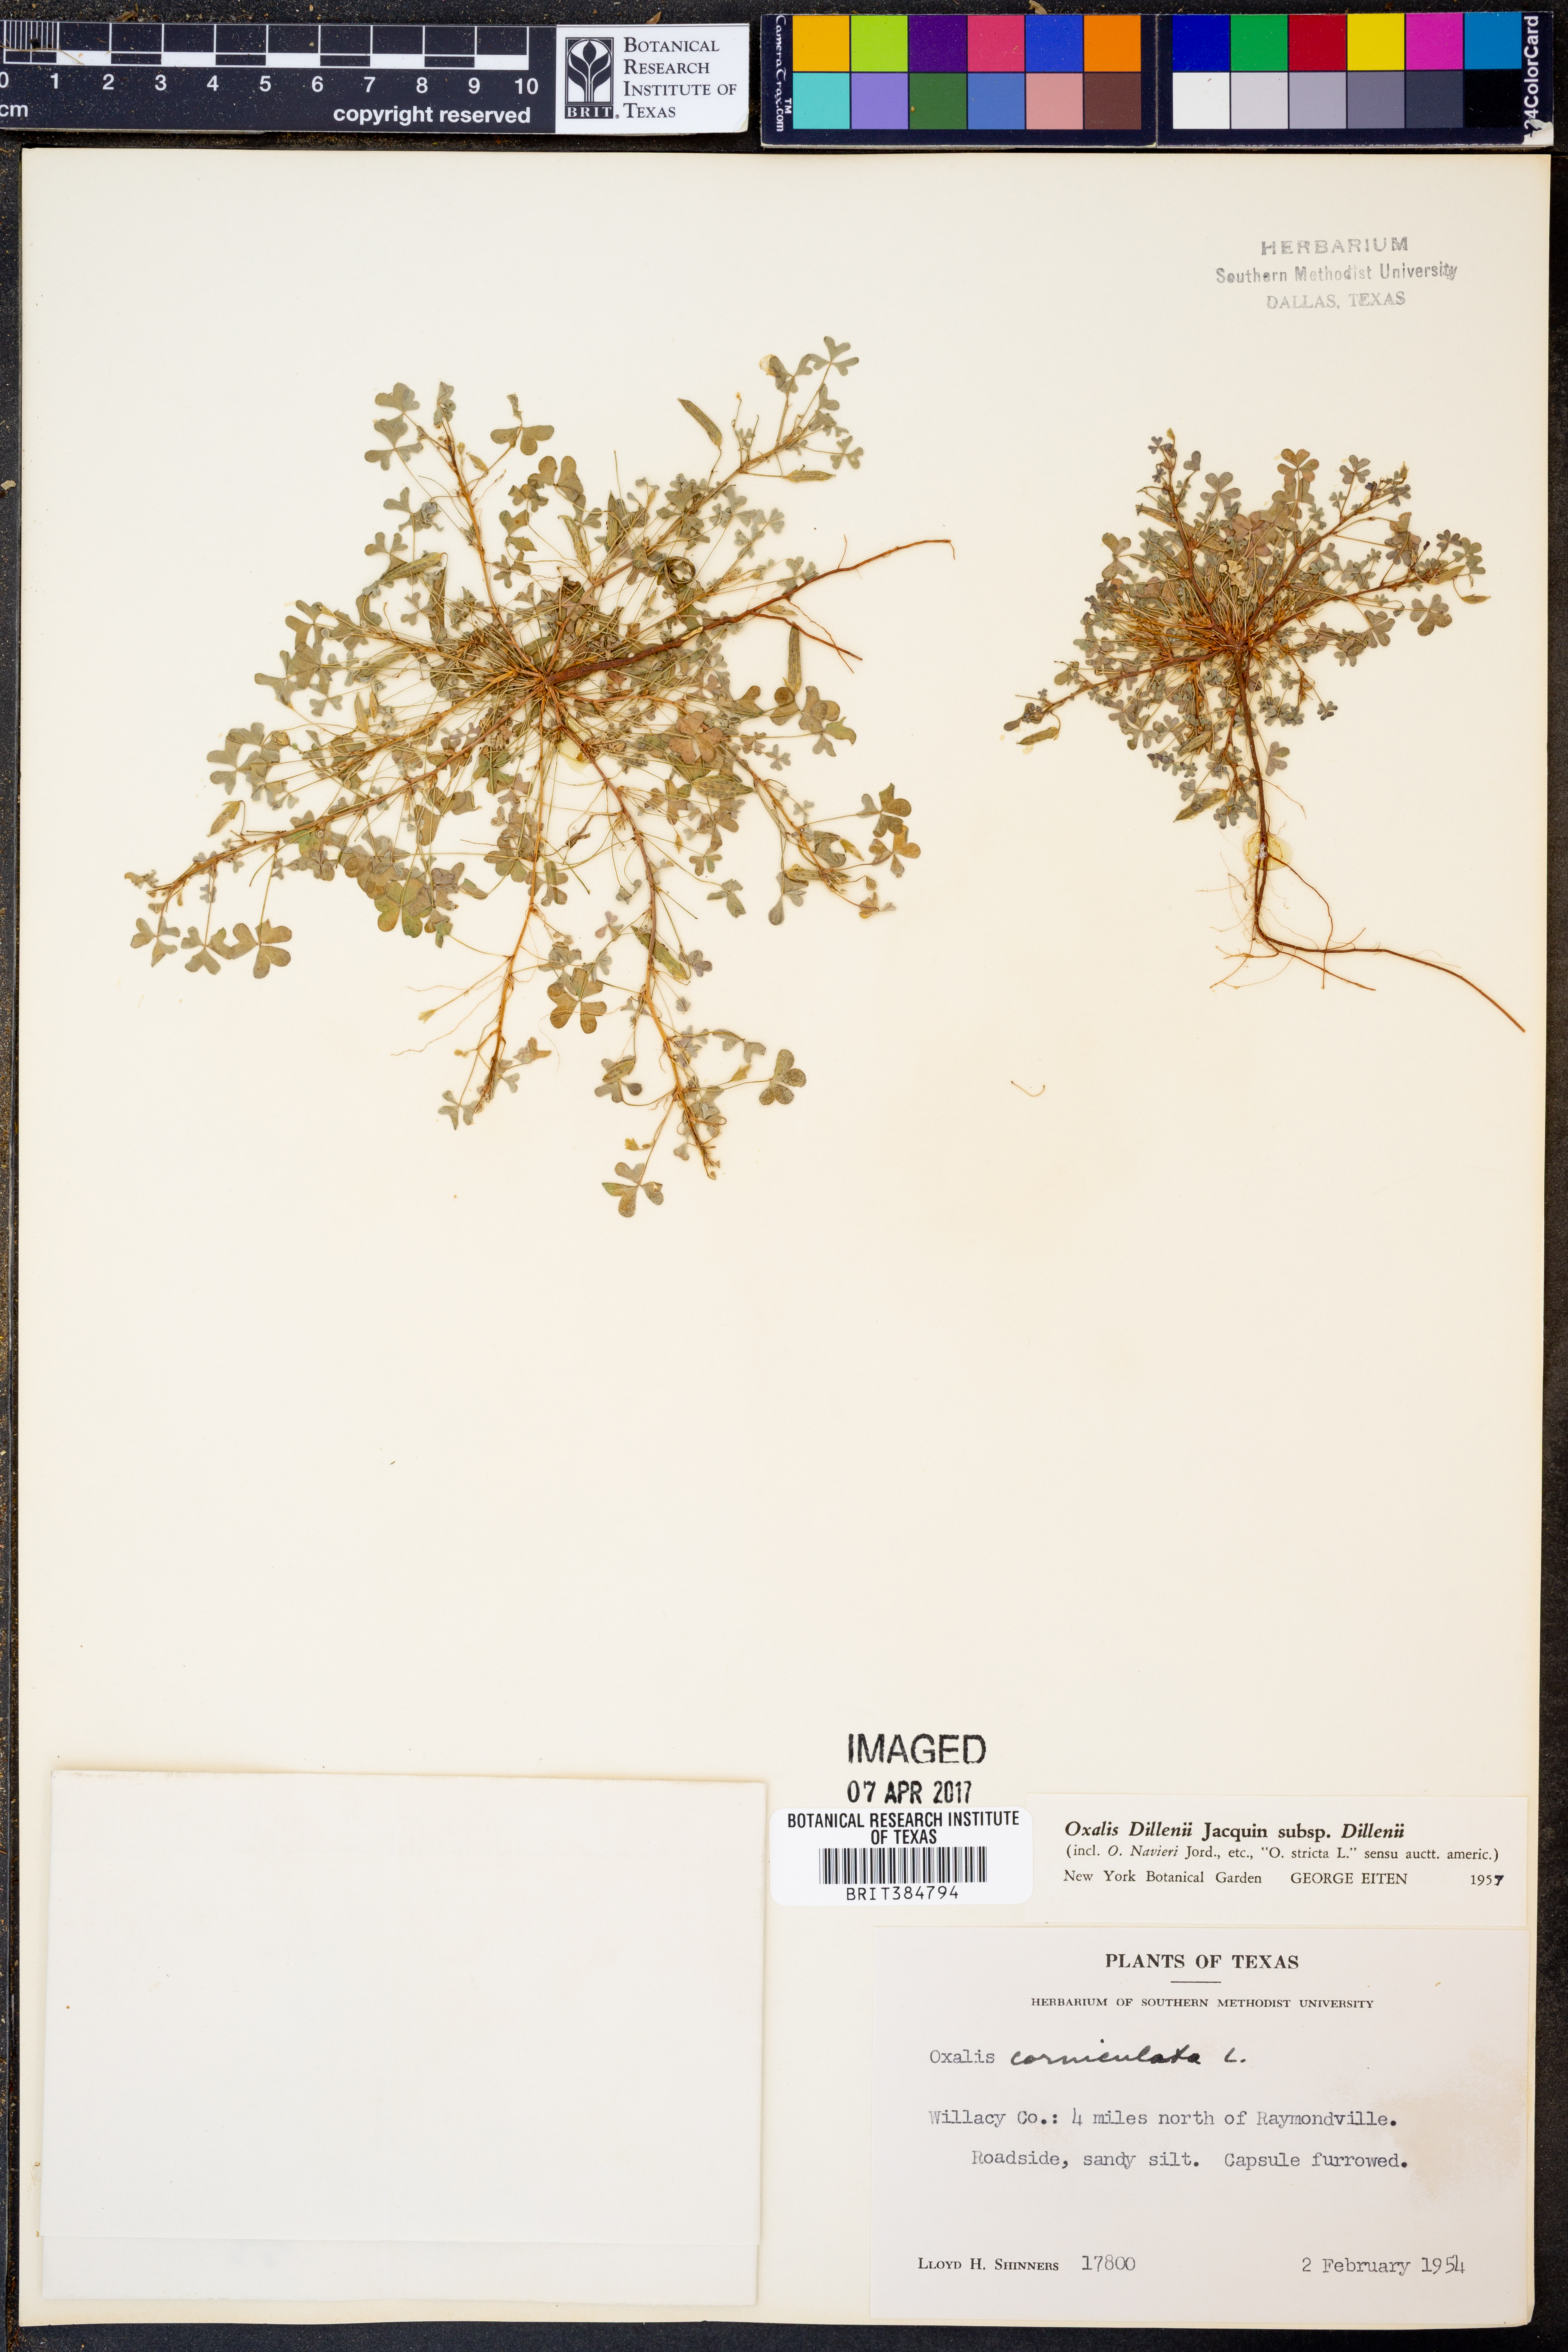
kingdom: Plantae
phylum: Tracheophyta
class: Magnoliopsida
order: Oxalidales
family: Oxalidaceae
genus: Oxalis
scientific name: Oxalis dillenii
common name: Sussex yellow-sorrel
